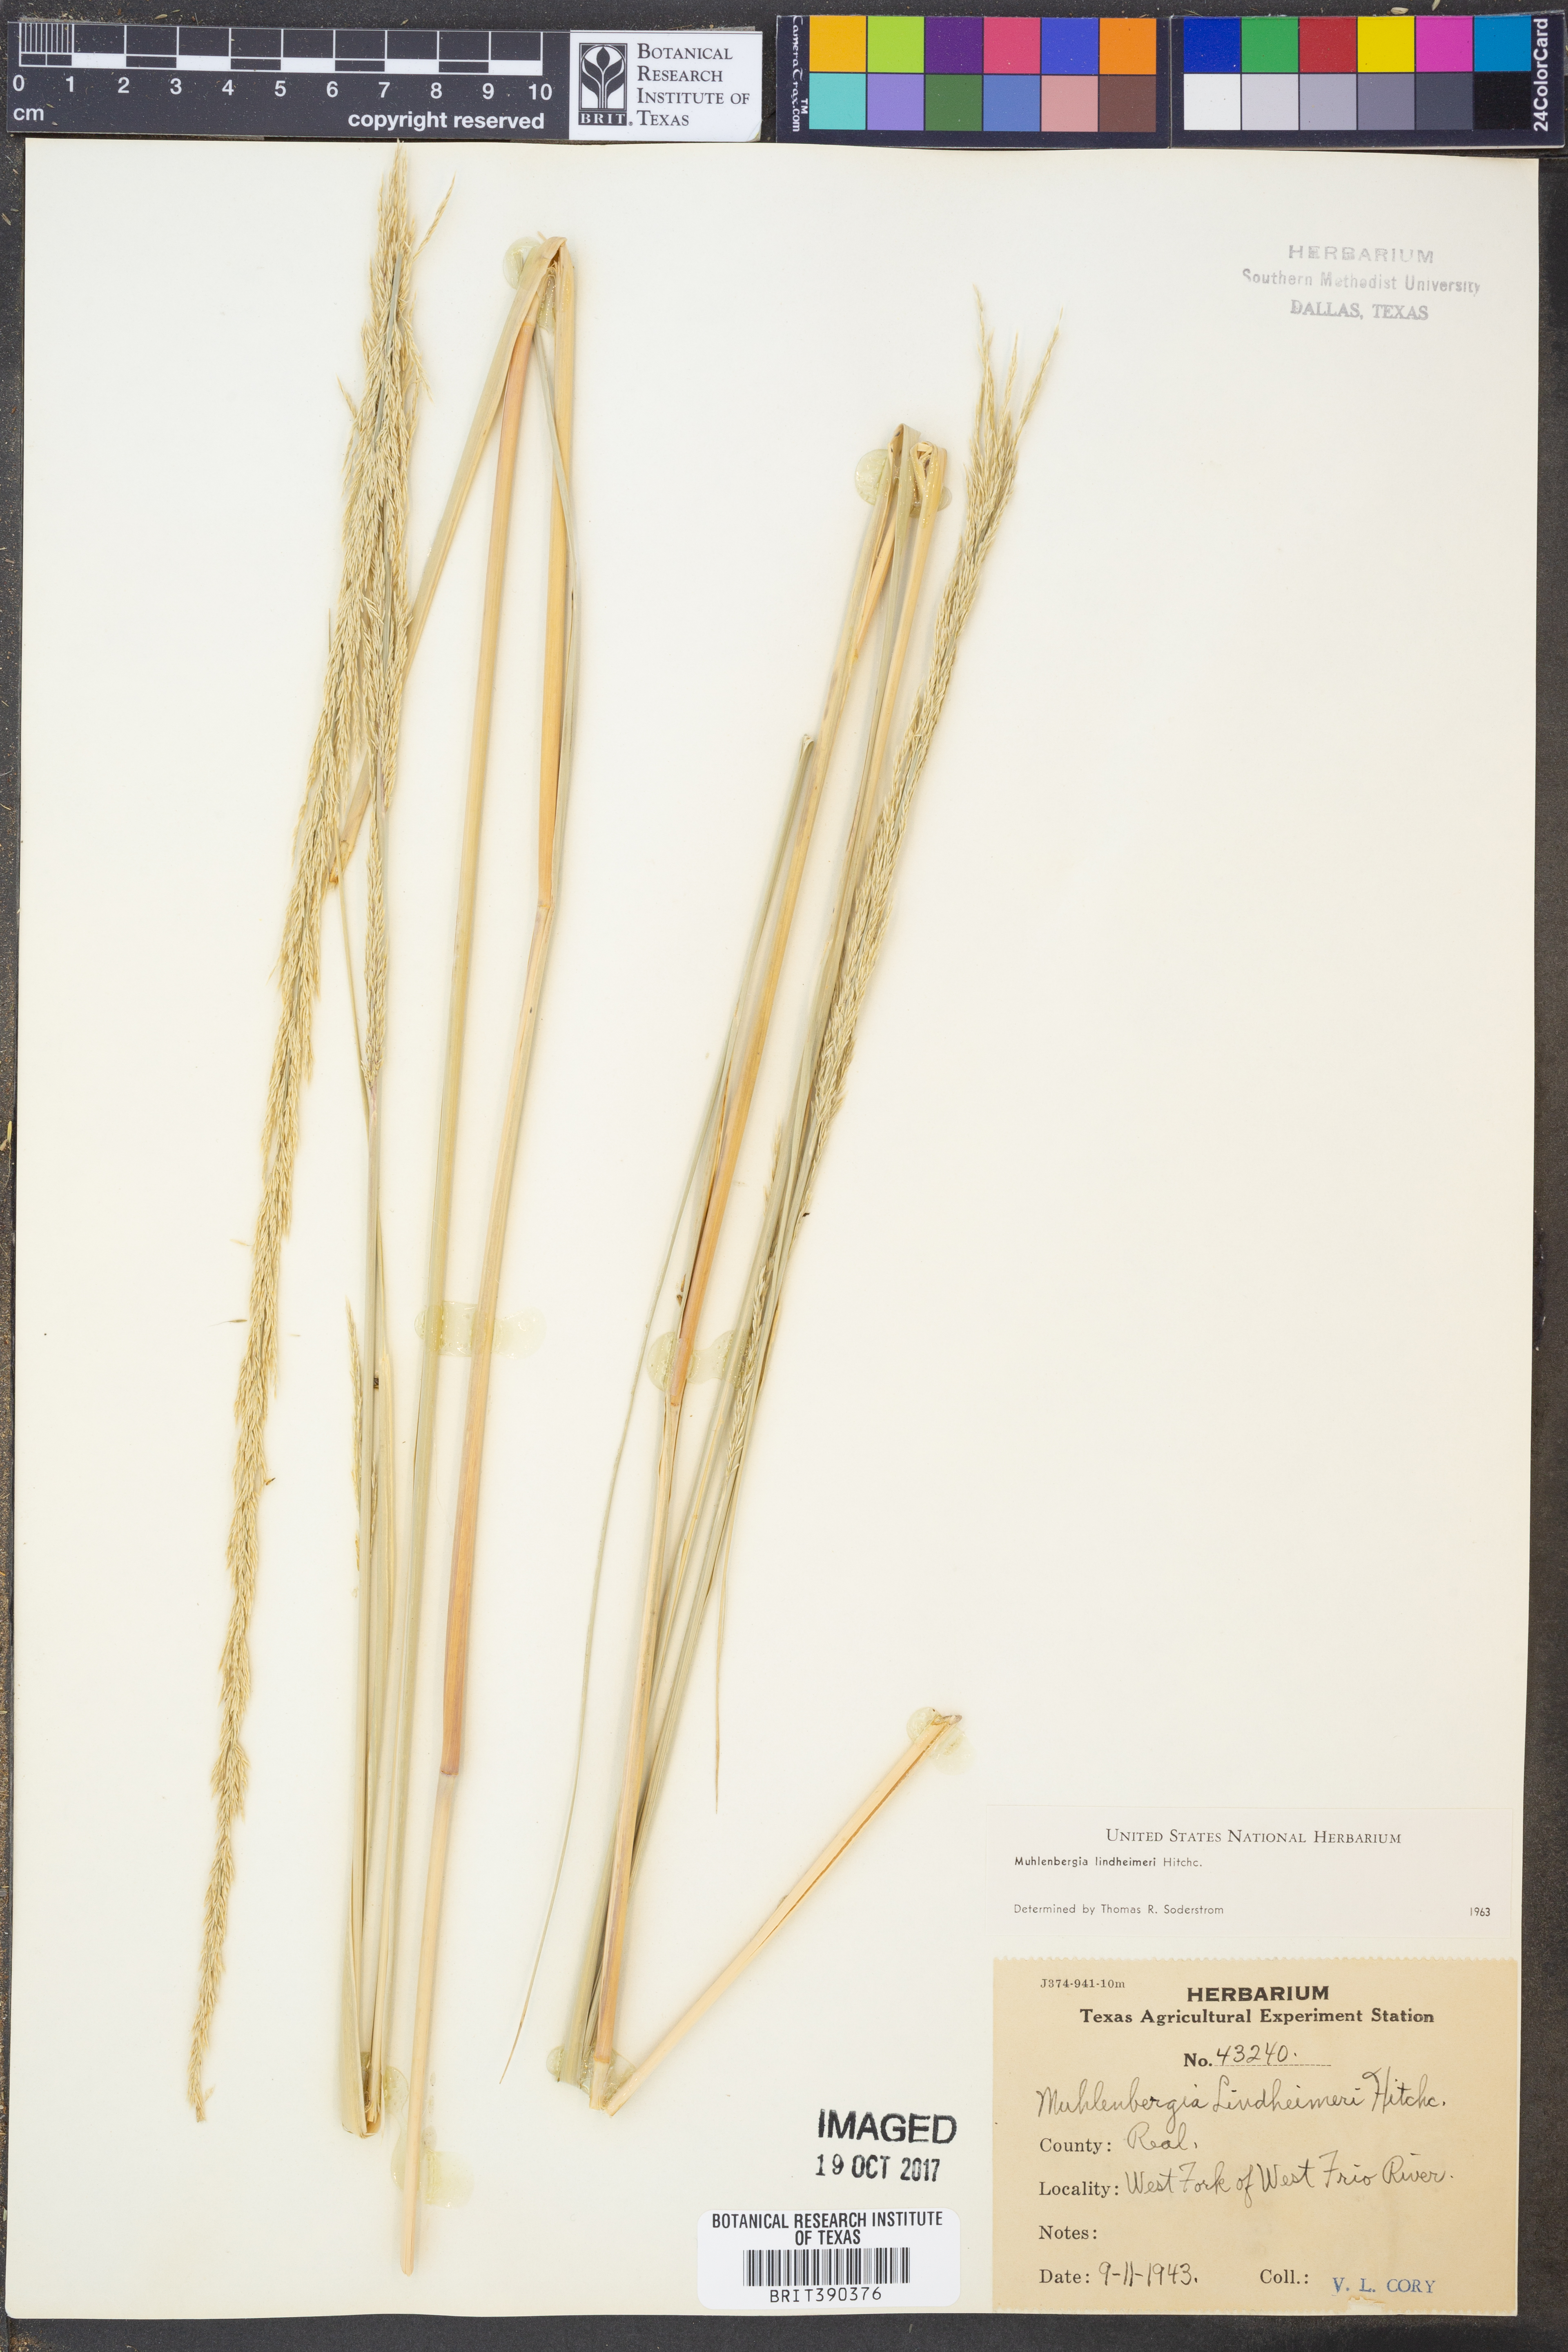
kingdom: Plantae
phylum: Tracheophyta
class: Liliopsida
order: Poales
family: Poaceae
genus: Muhlenbergia
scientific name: Muhlenbergia lindheimeri
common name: Lindheimer's muhly
